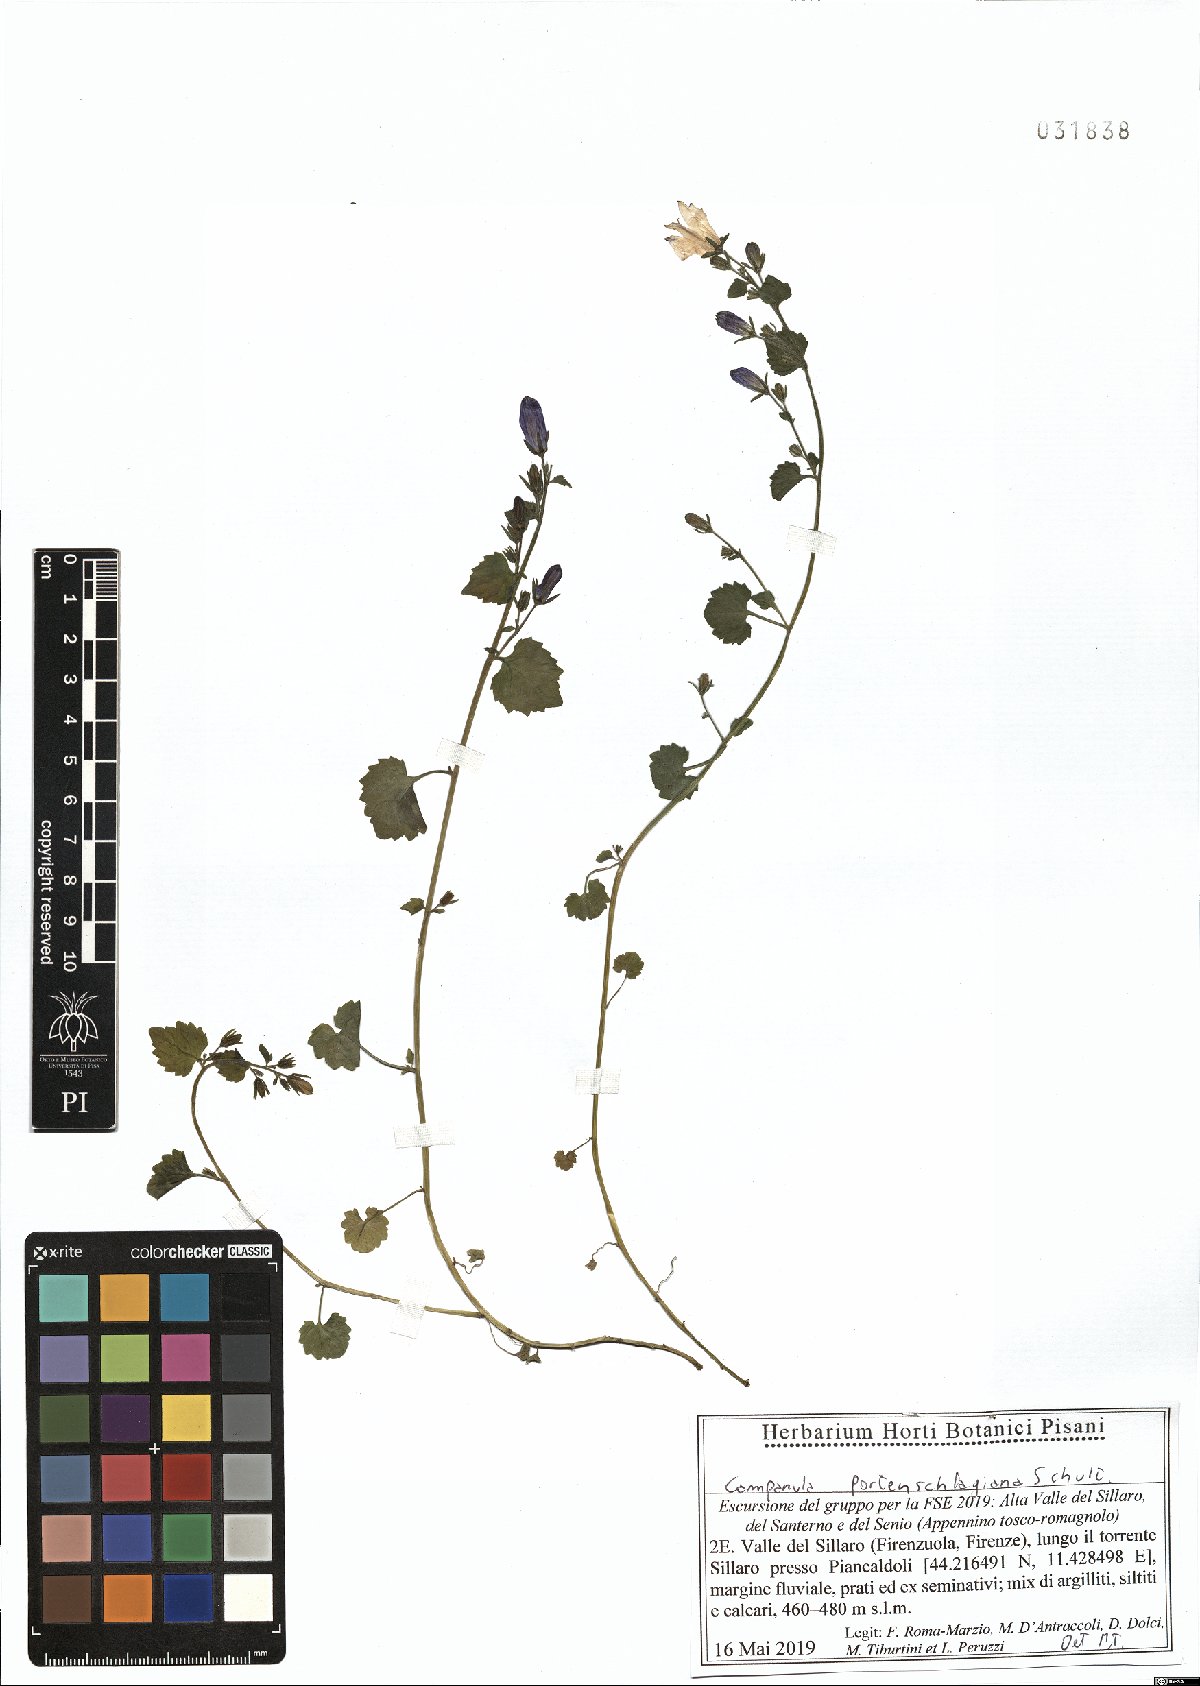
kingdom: Plantae
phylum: Tracheophyta
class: Magnoliopsida
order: Asterales
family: Campanulaceae
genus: Campanula
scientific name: Campanula portenschlagiana
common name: Adria bellflower
